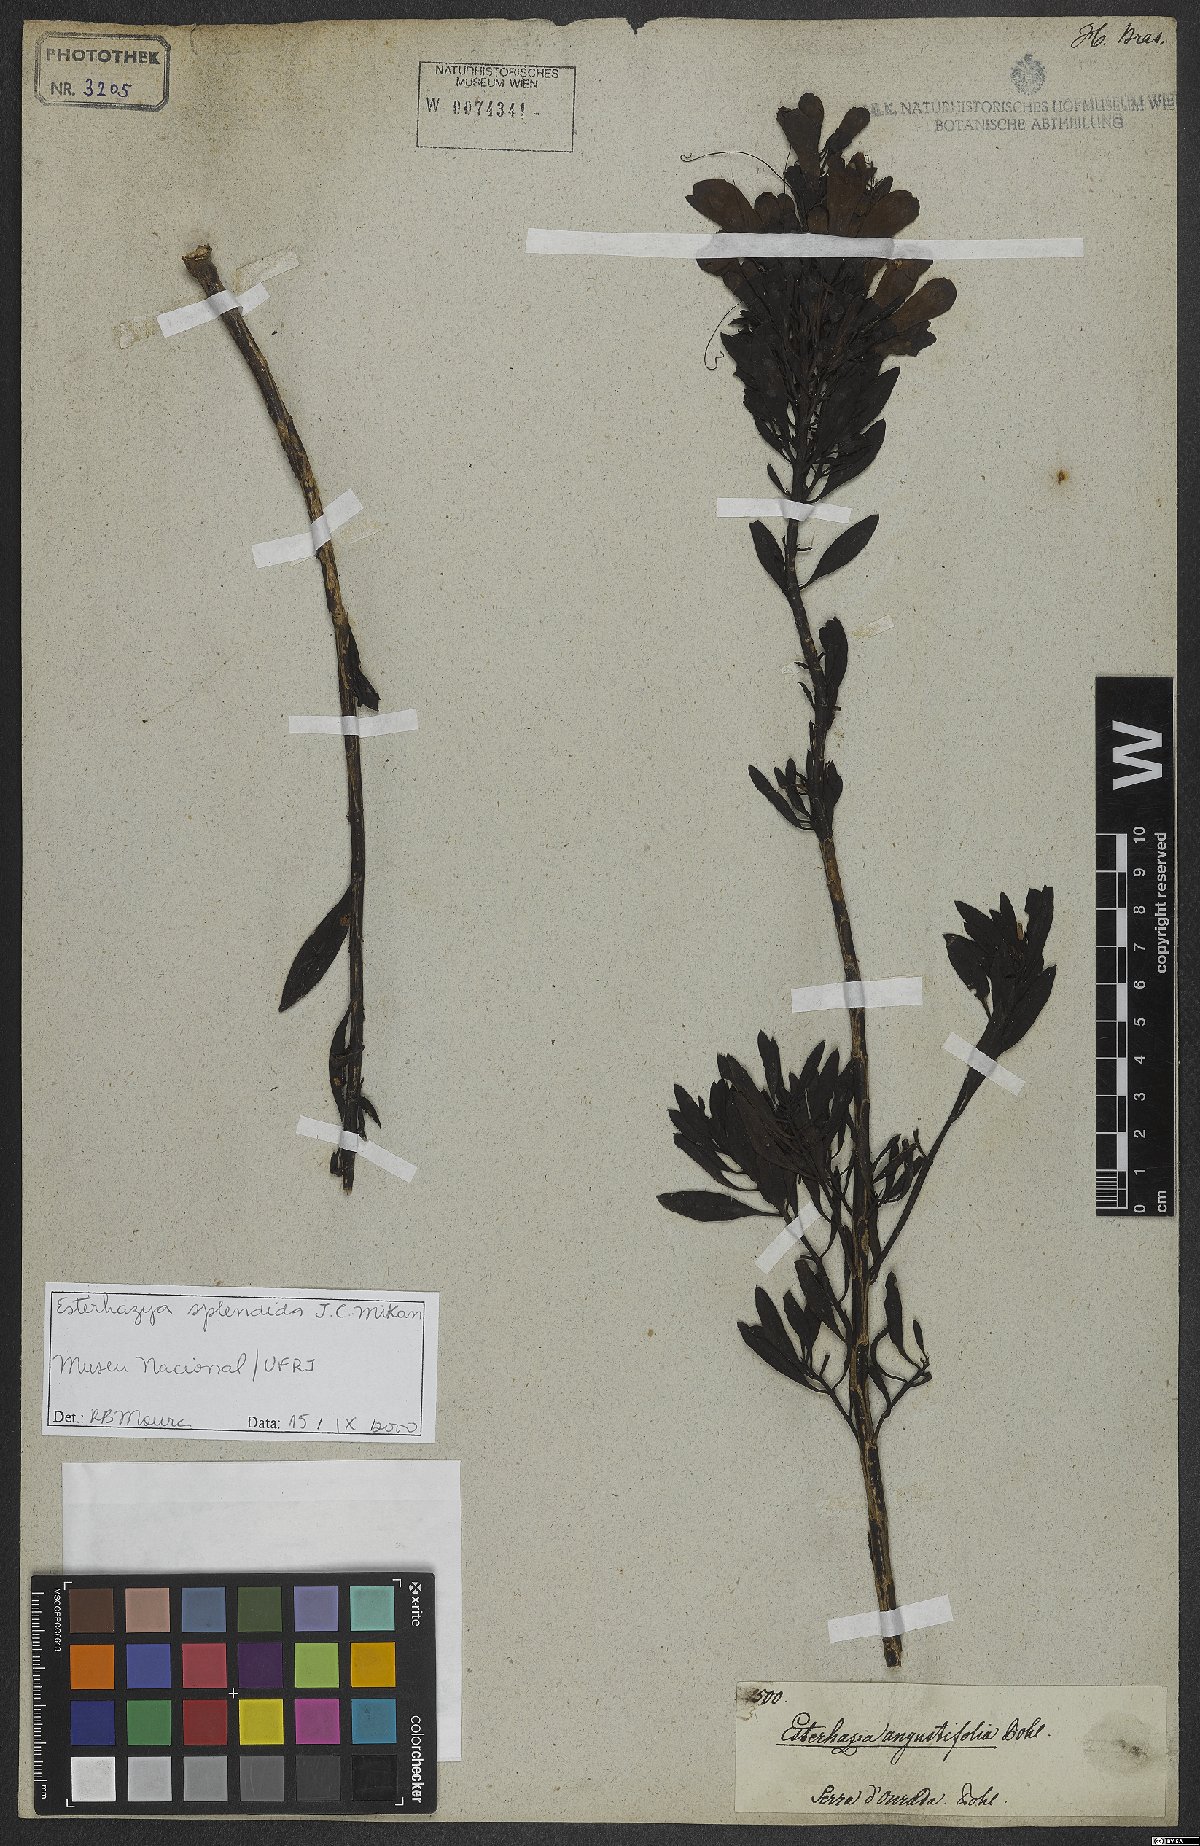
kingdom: Plantae
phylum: Tracheophyta
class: Magnoliopsida
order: Lamiales
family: Orobanchaceae
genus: Esterhazya
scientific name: Esterhazya splendida
